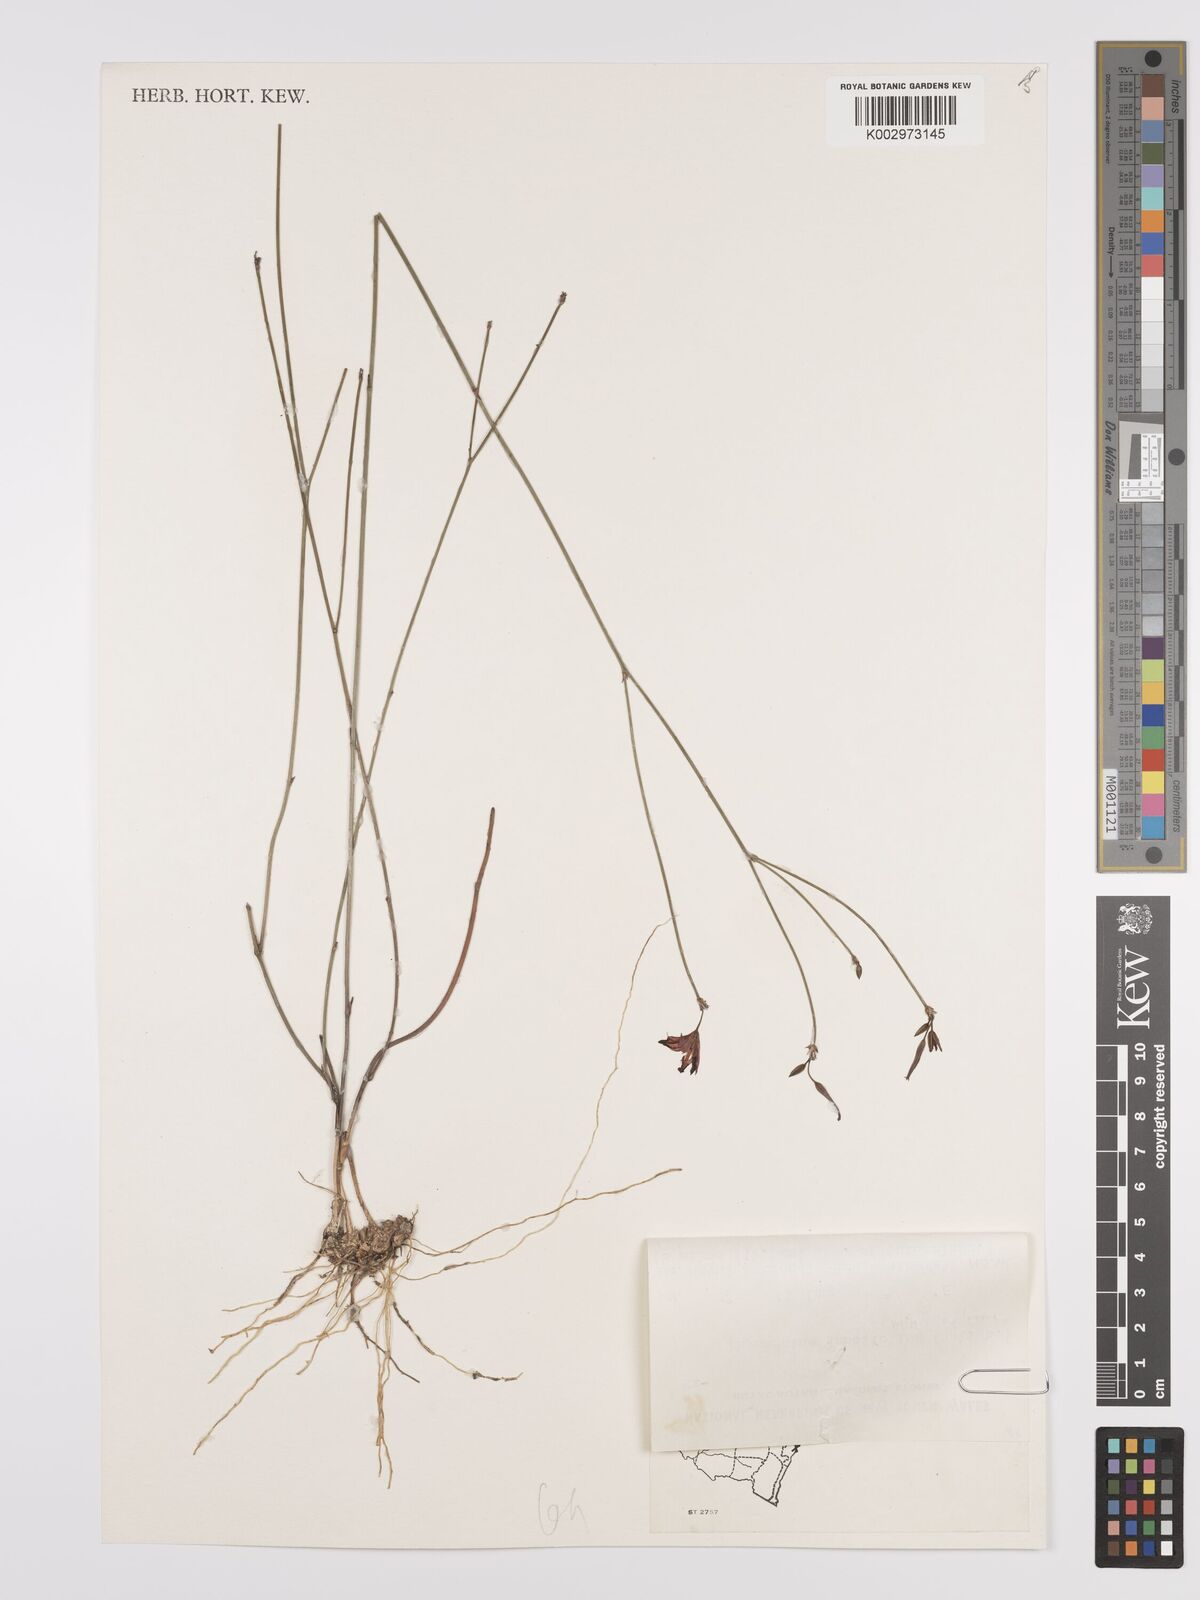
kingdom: Plantae
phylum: Tracheophyta
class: Liliopsida
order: Asparagales
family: Asparagaceae
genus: Thysanotus
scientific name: Thysanotus juncifolius
